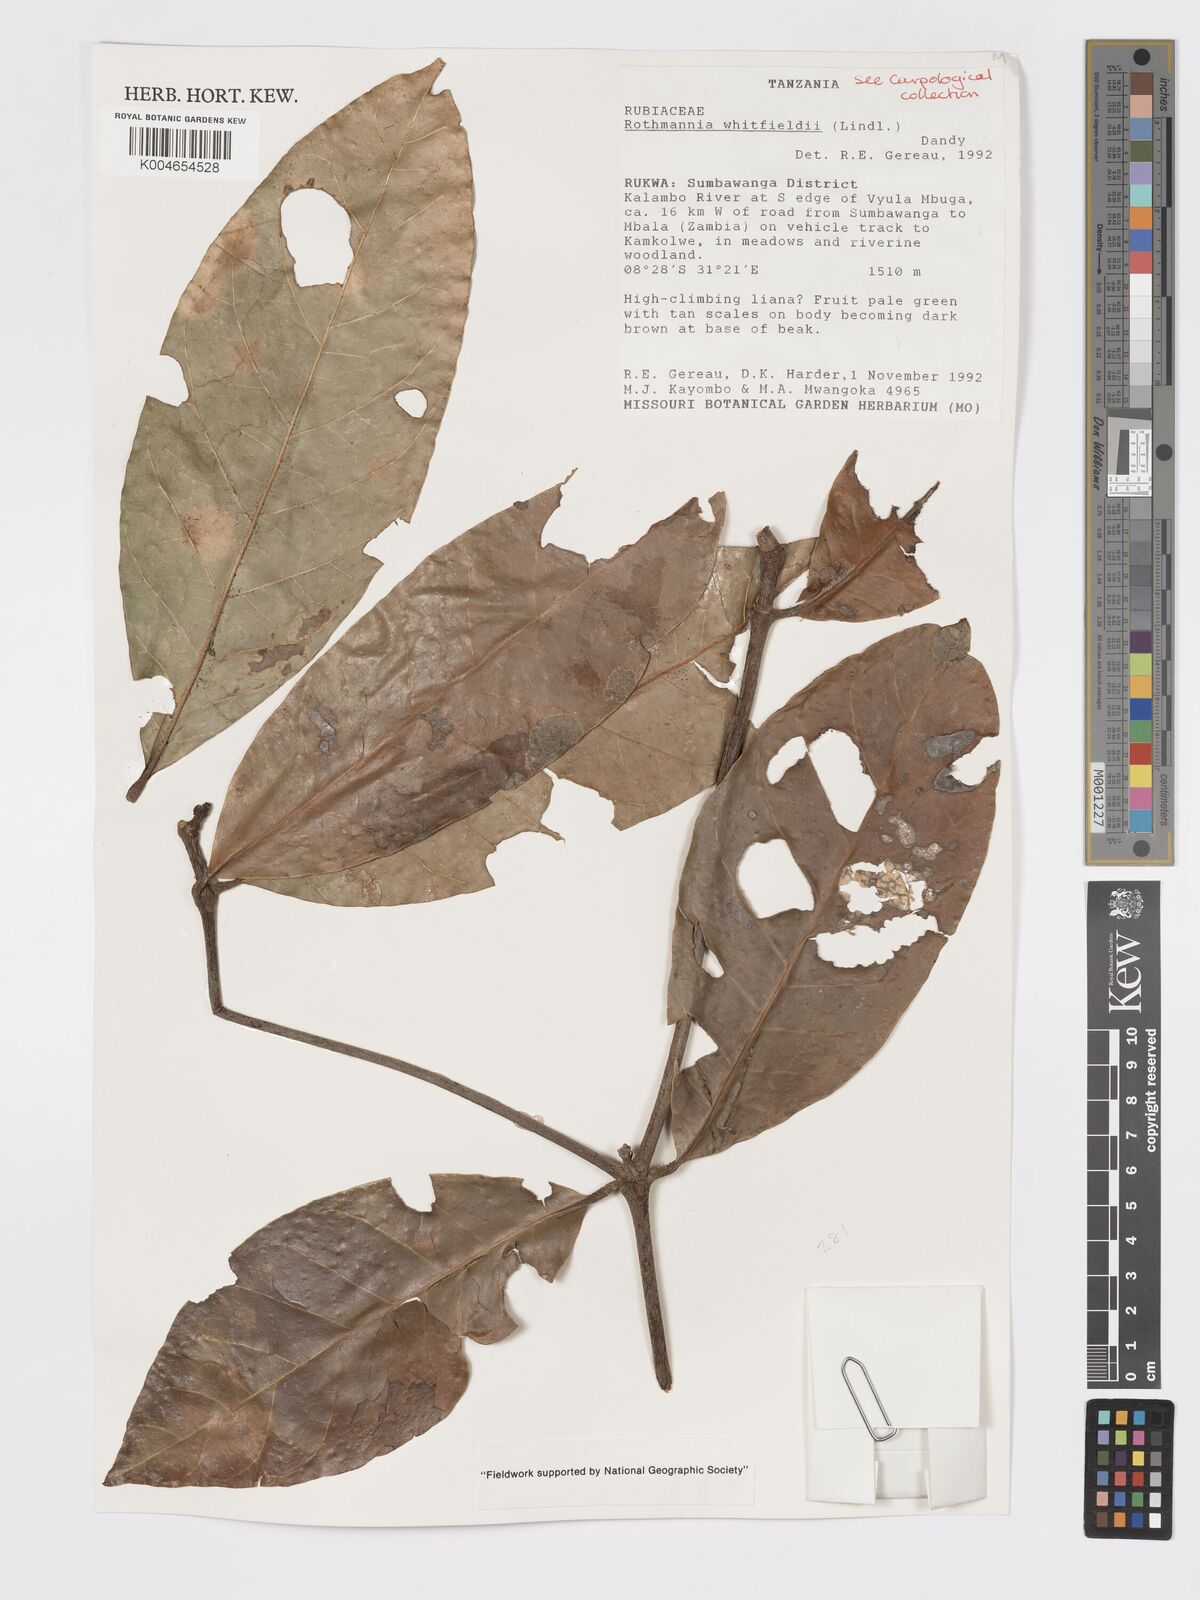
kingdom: Plantae
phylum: Tracheophyta
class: Magnoliopsida
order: Gentianales
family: Rubiaceae
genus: Rothmannia
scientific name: Rothmannia whitfieldii
